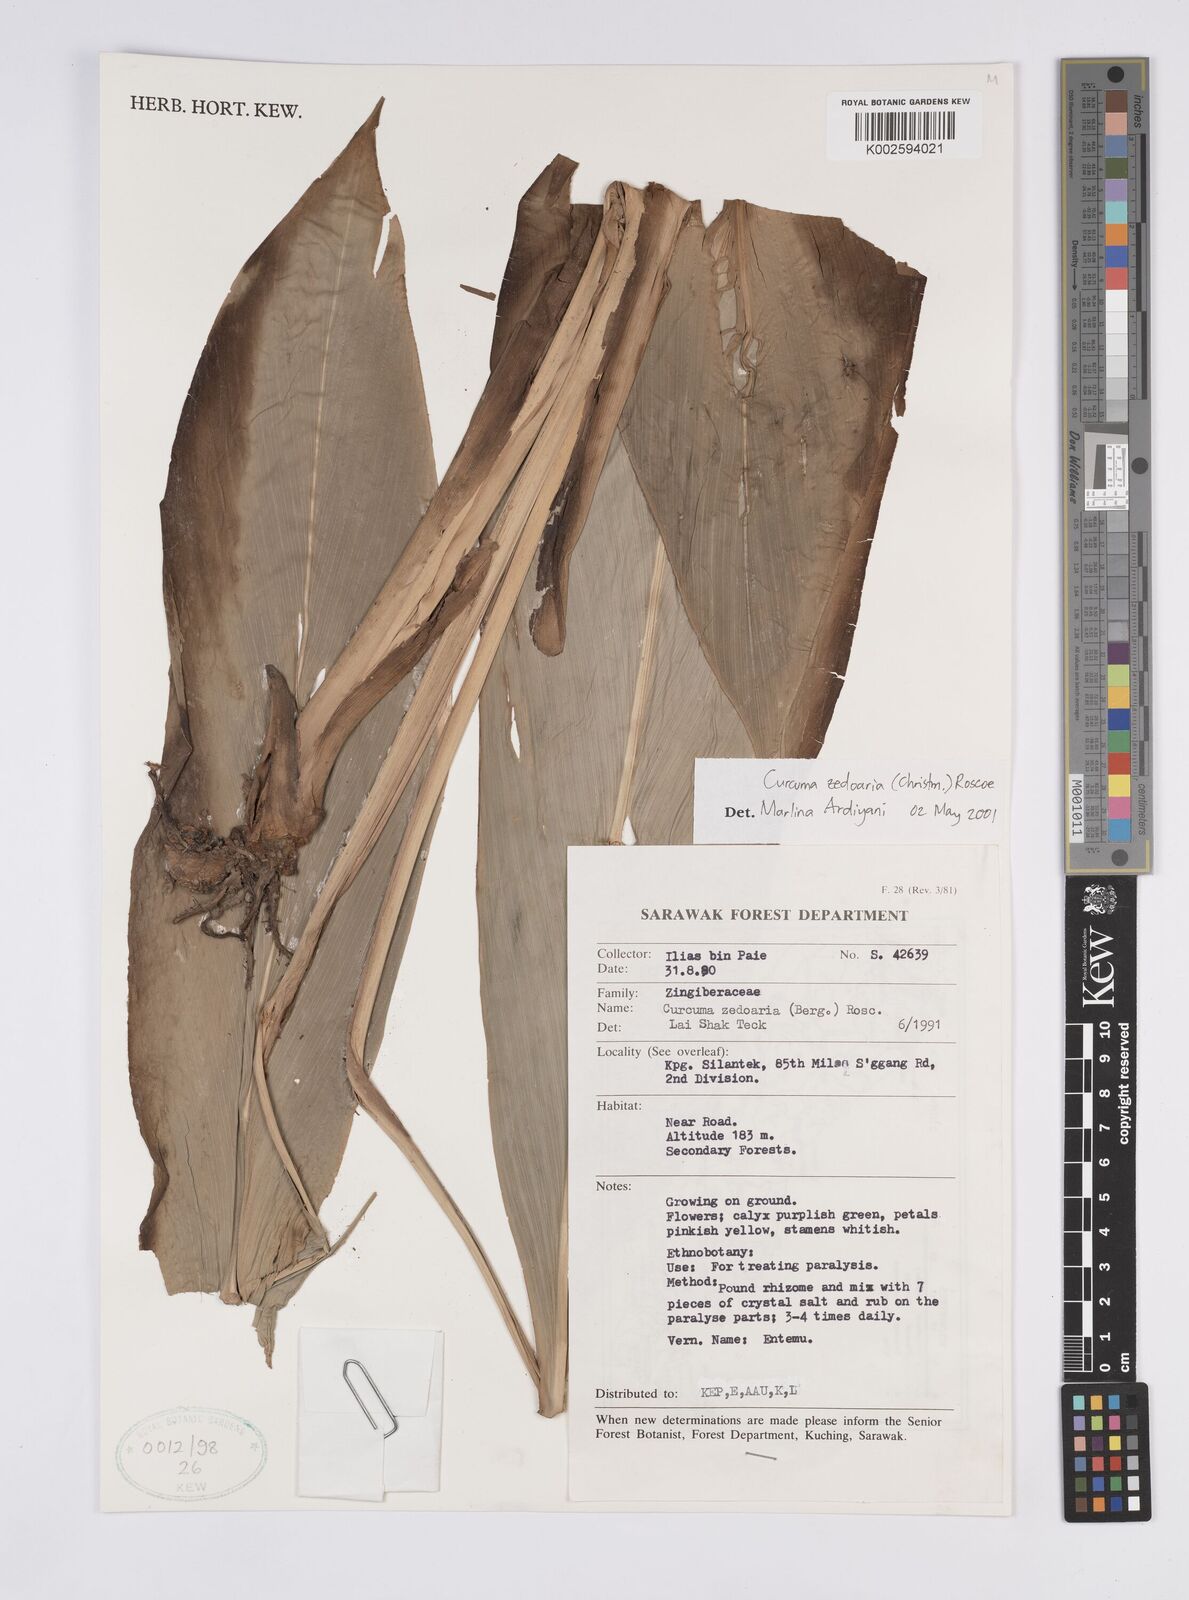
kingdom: Plantae
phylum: Tracheophyta
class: Liliopsida
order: Zingiberales
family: Zingiberaceae
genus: Curcuma
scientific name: Curcuma zedoaria
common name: Zedoary
